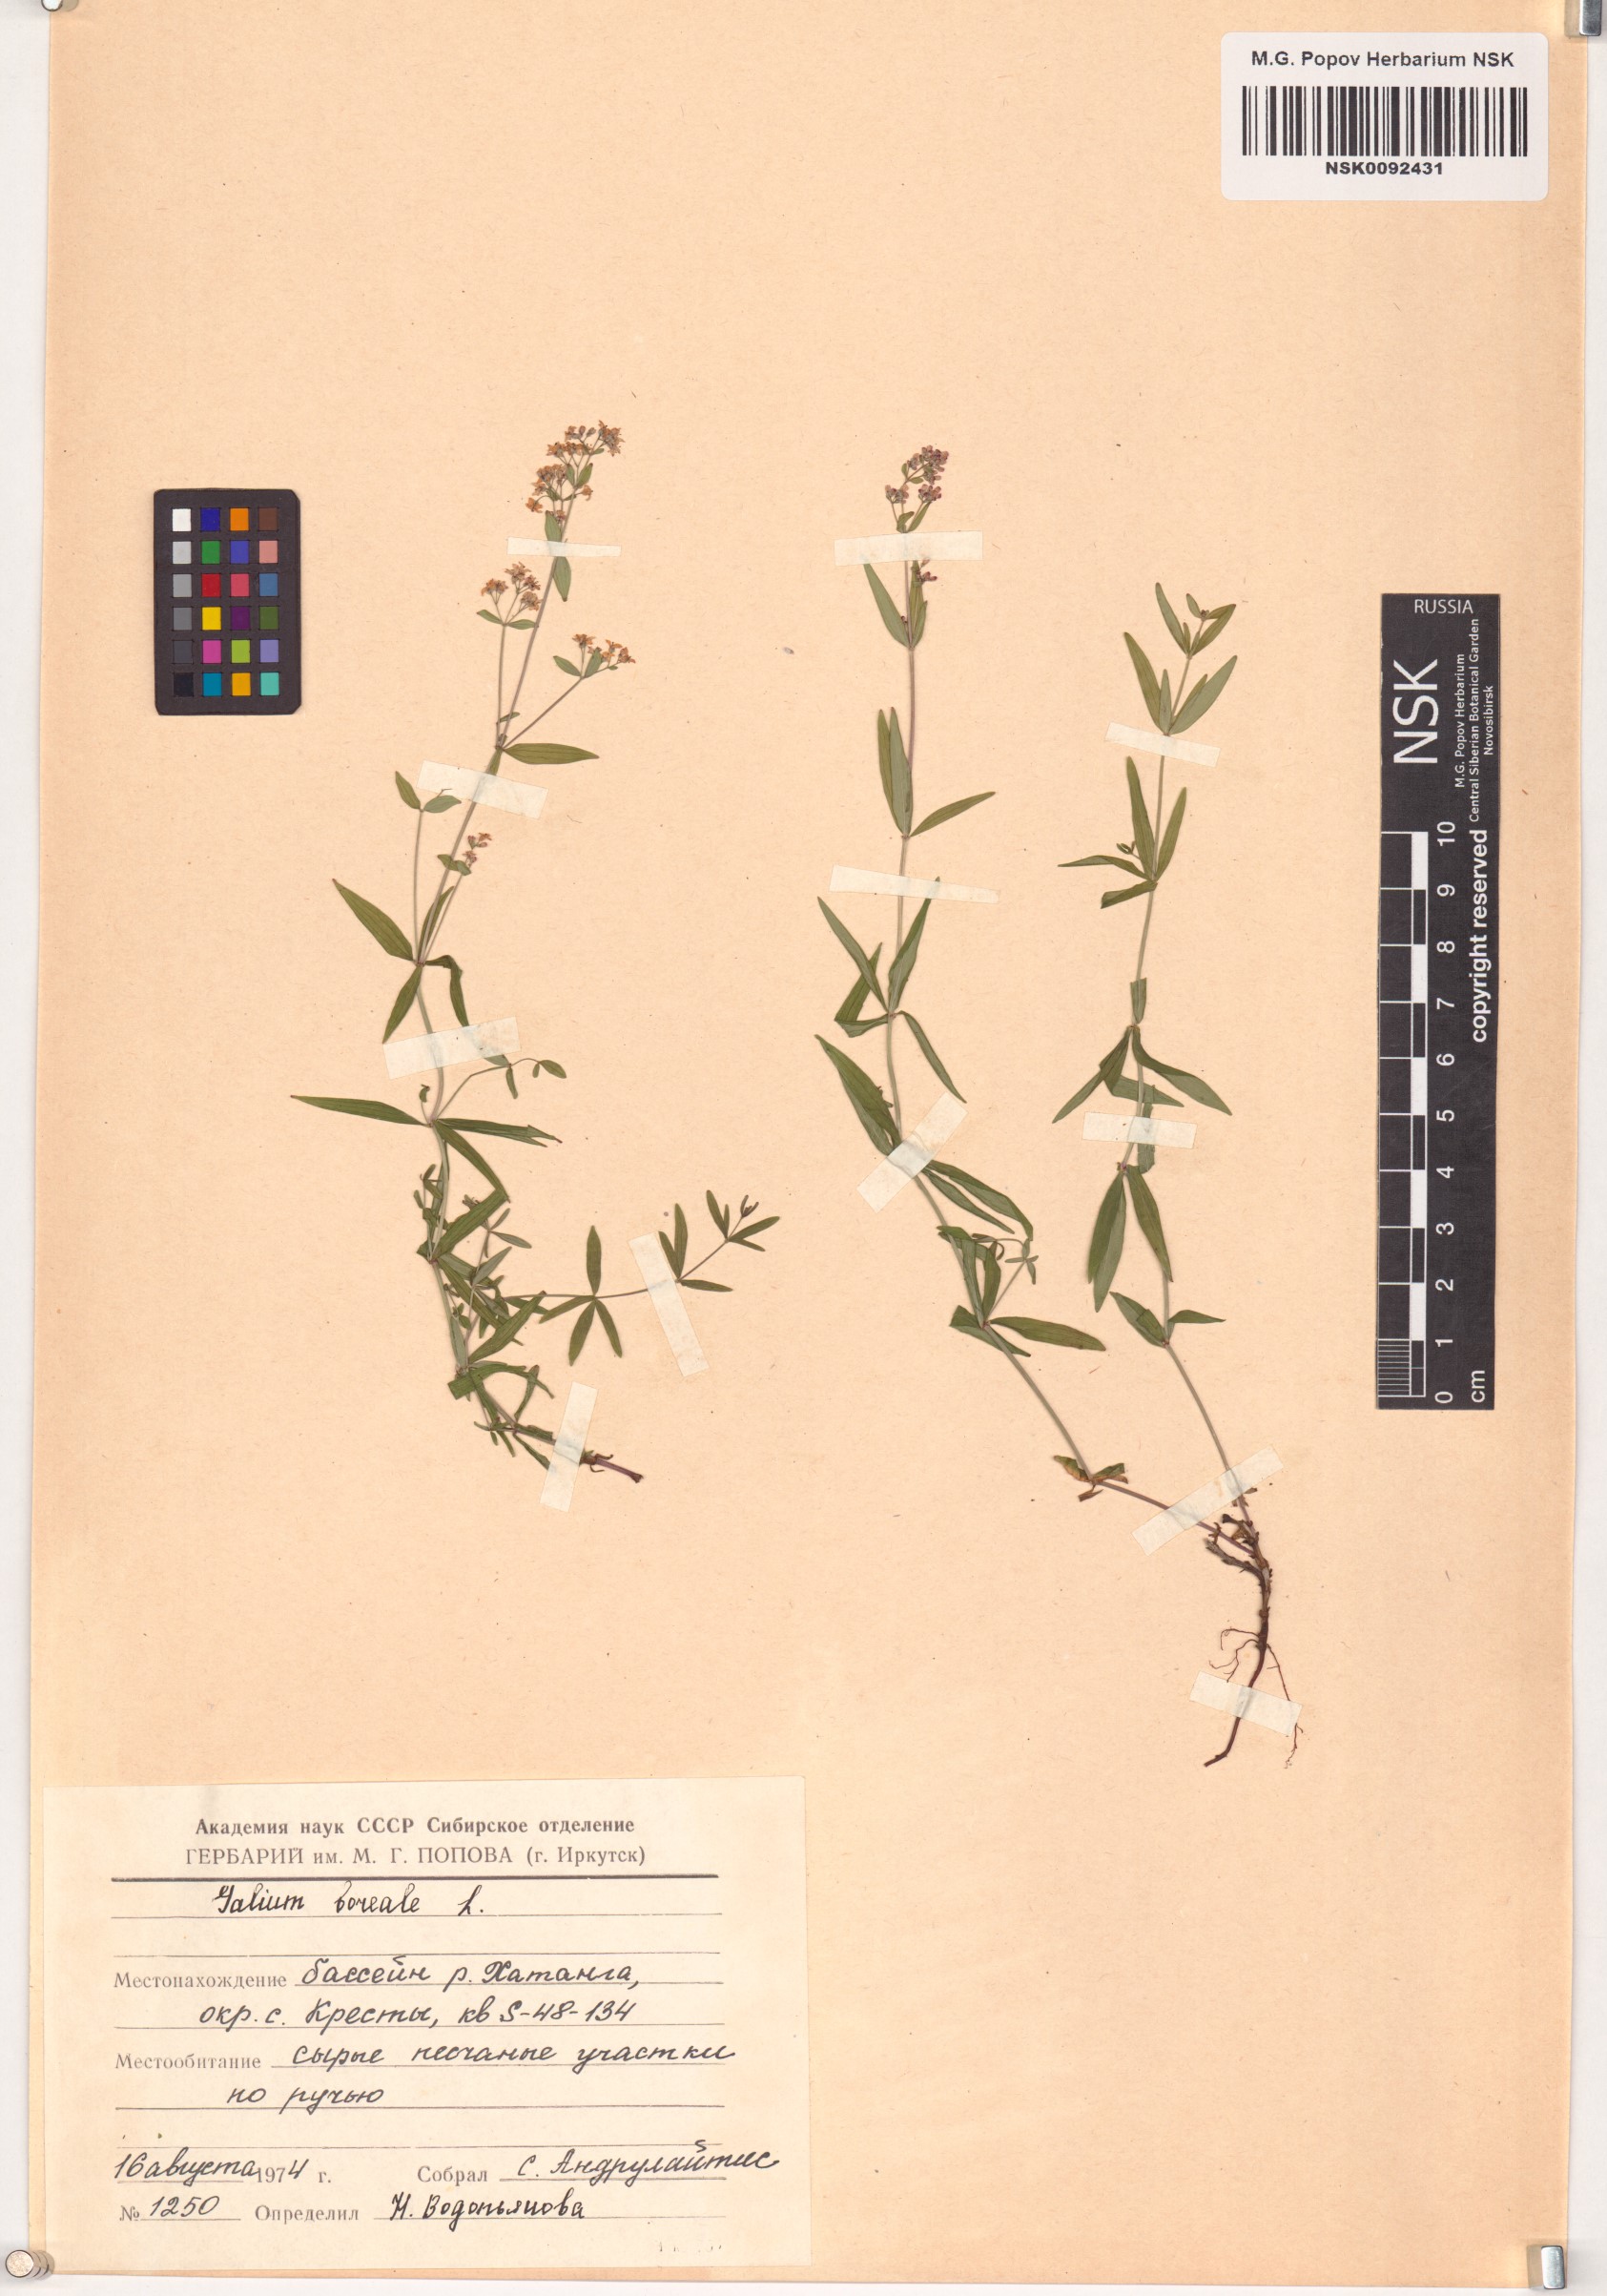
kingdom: Plantae
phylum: Tracheophyta
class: Magnoliopsida
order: Gentianales
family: Rubiaceae
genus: Galium
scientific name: Galium boreale
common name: Northern bedstraw
